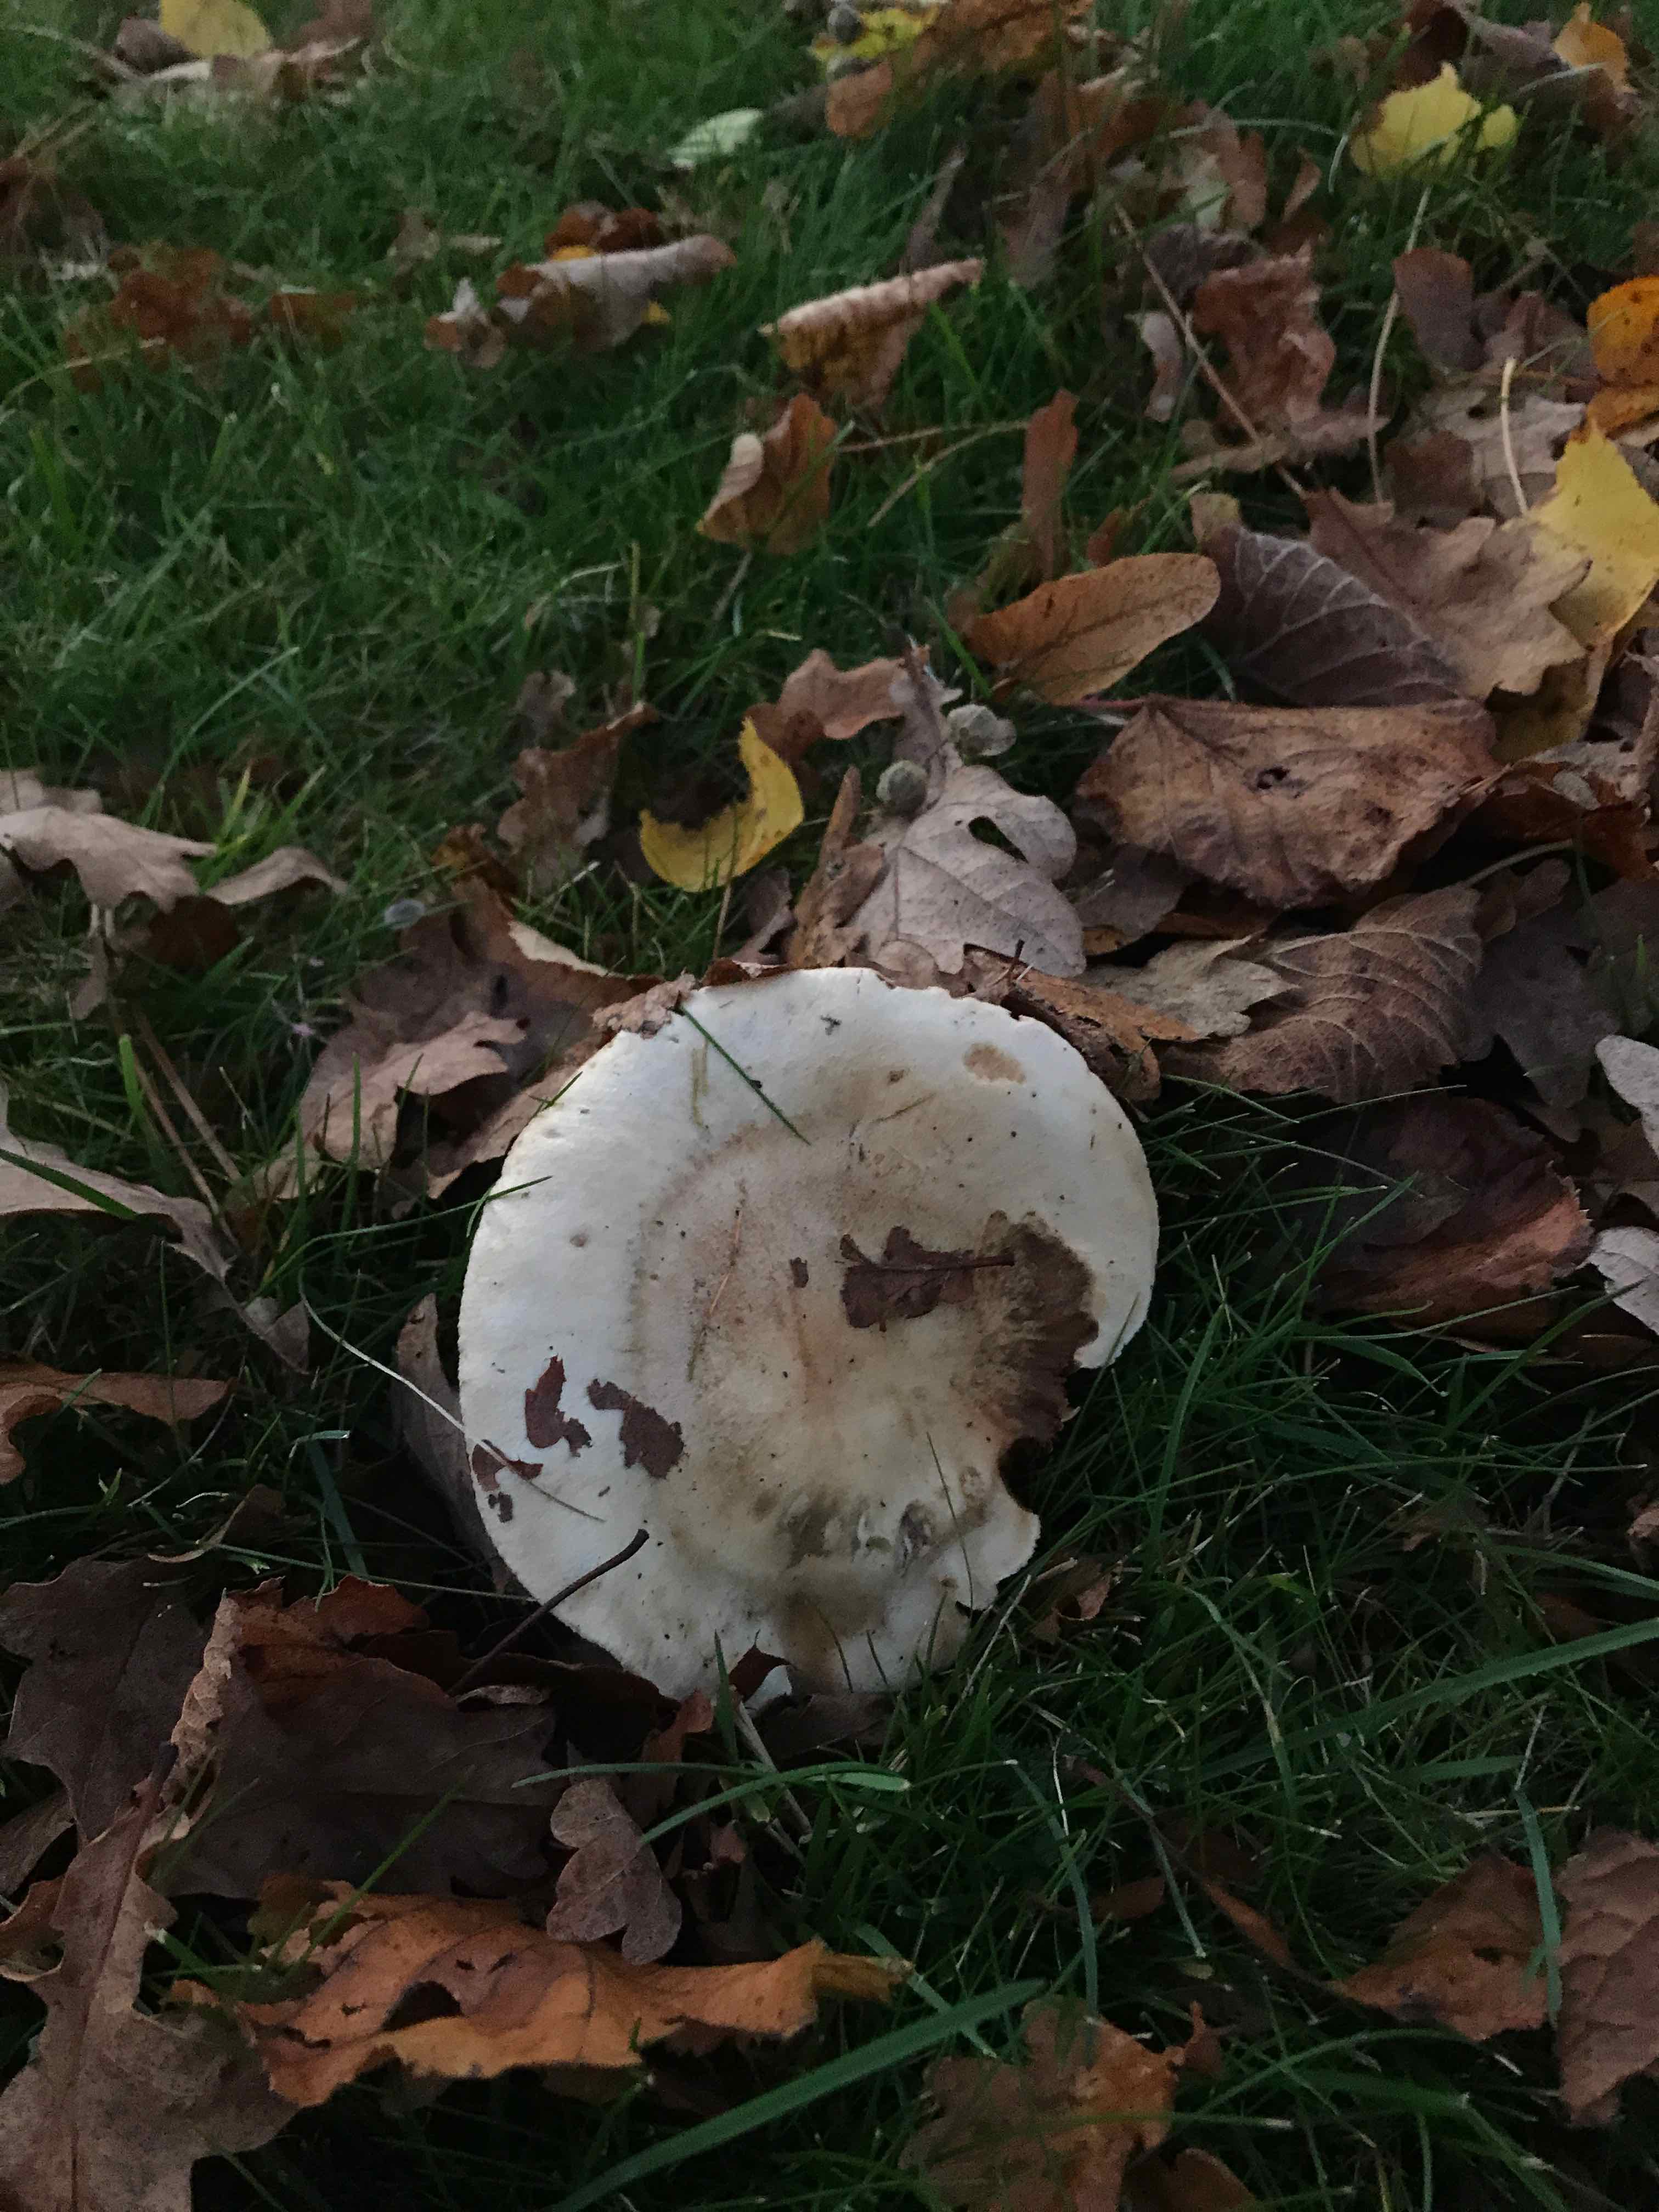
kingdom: Fungi
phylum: Basidiomycota
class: Agaricomycetes
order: Agaricales
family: Hymenogastraceae
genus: Hebeloma
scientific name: Hebeloma
